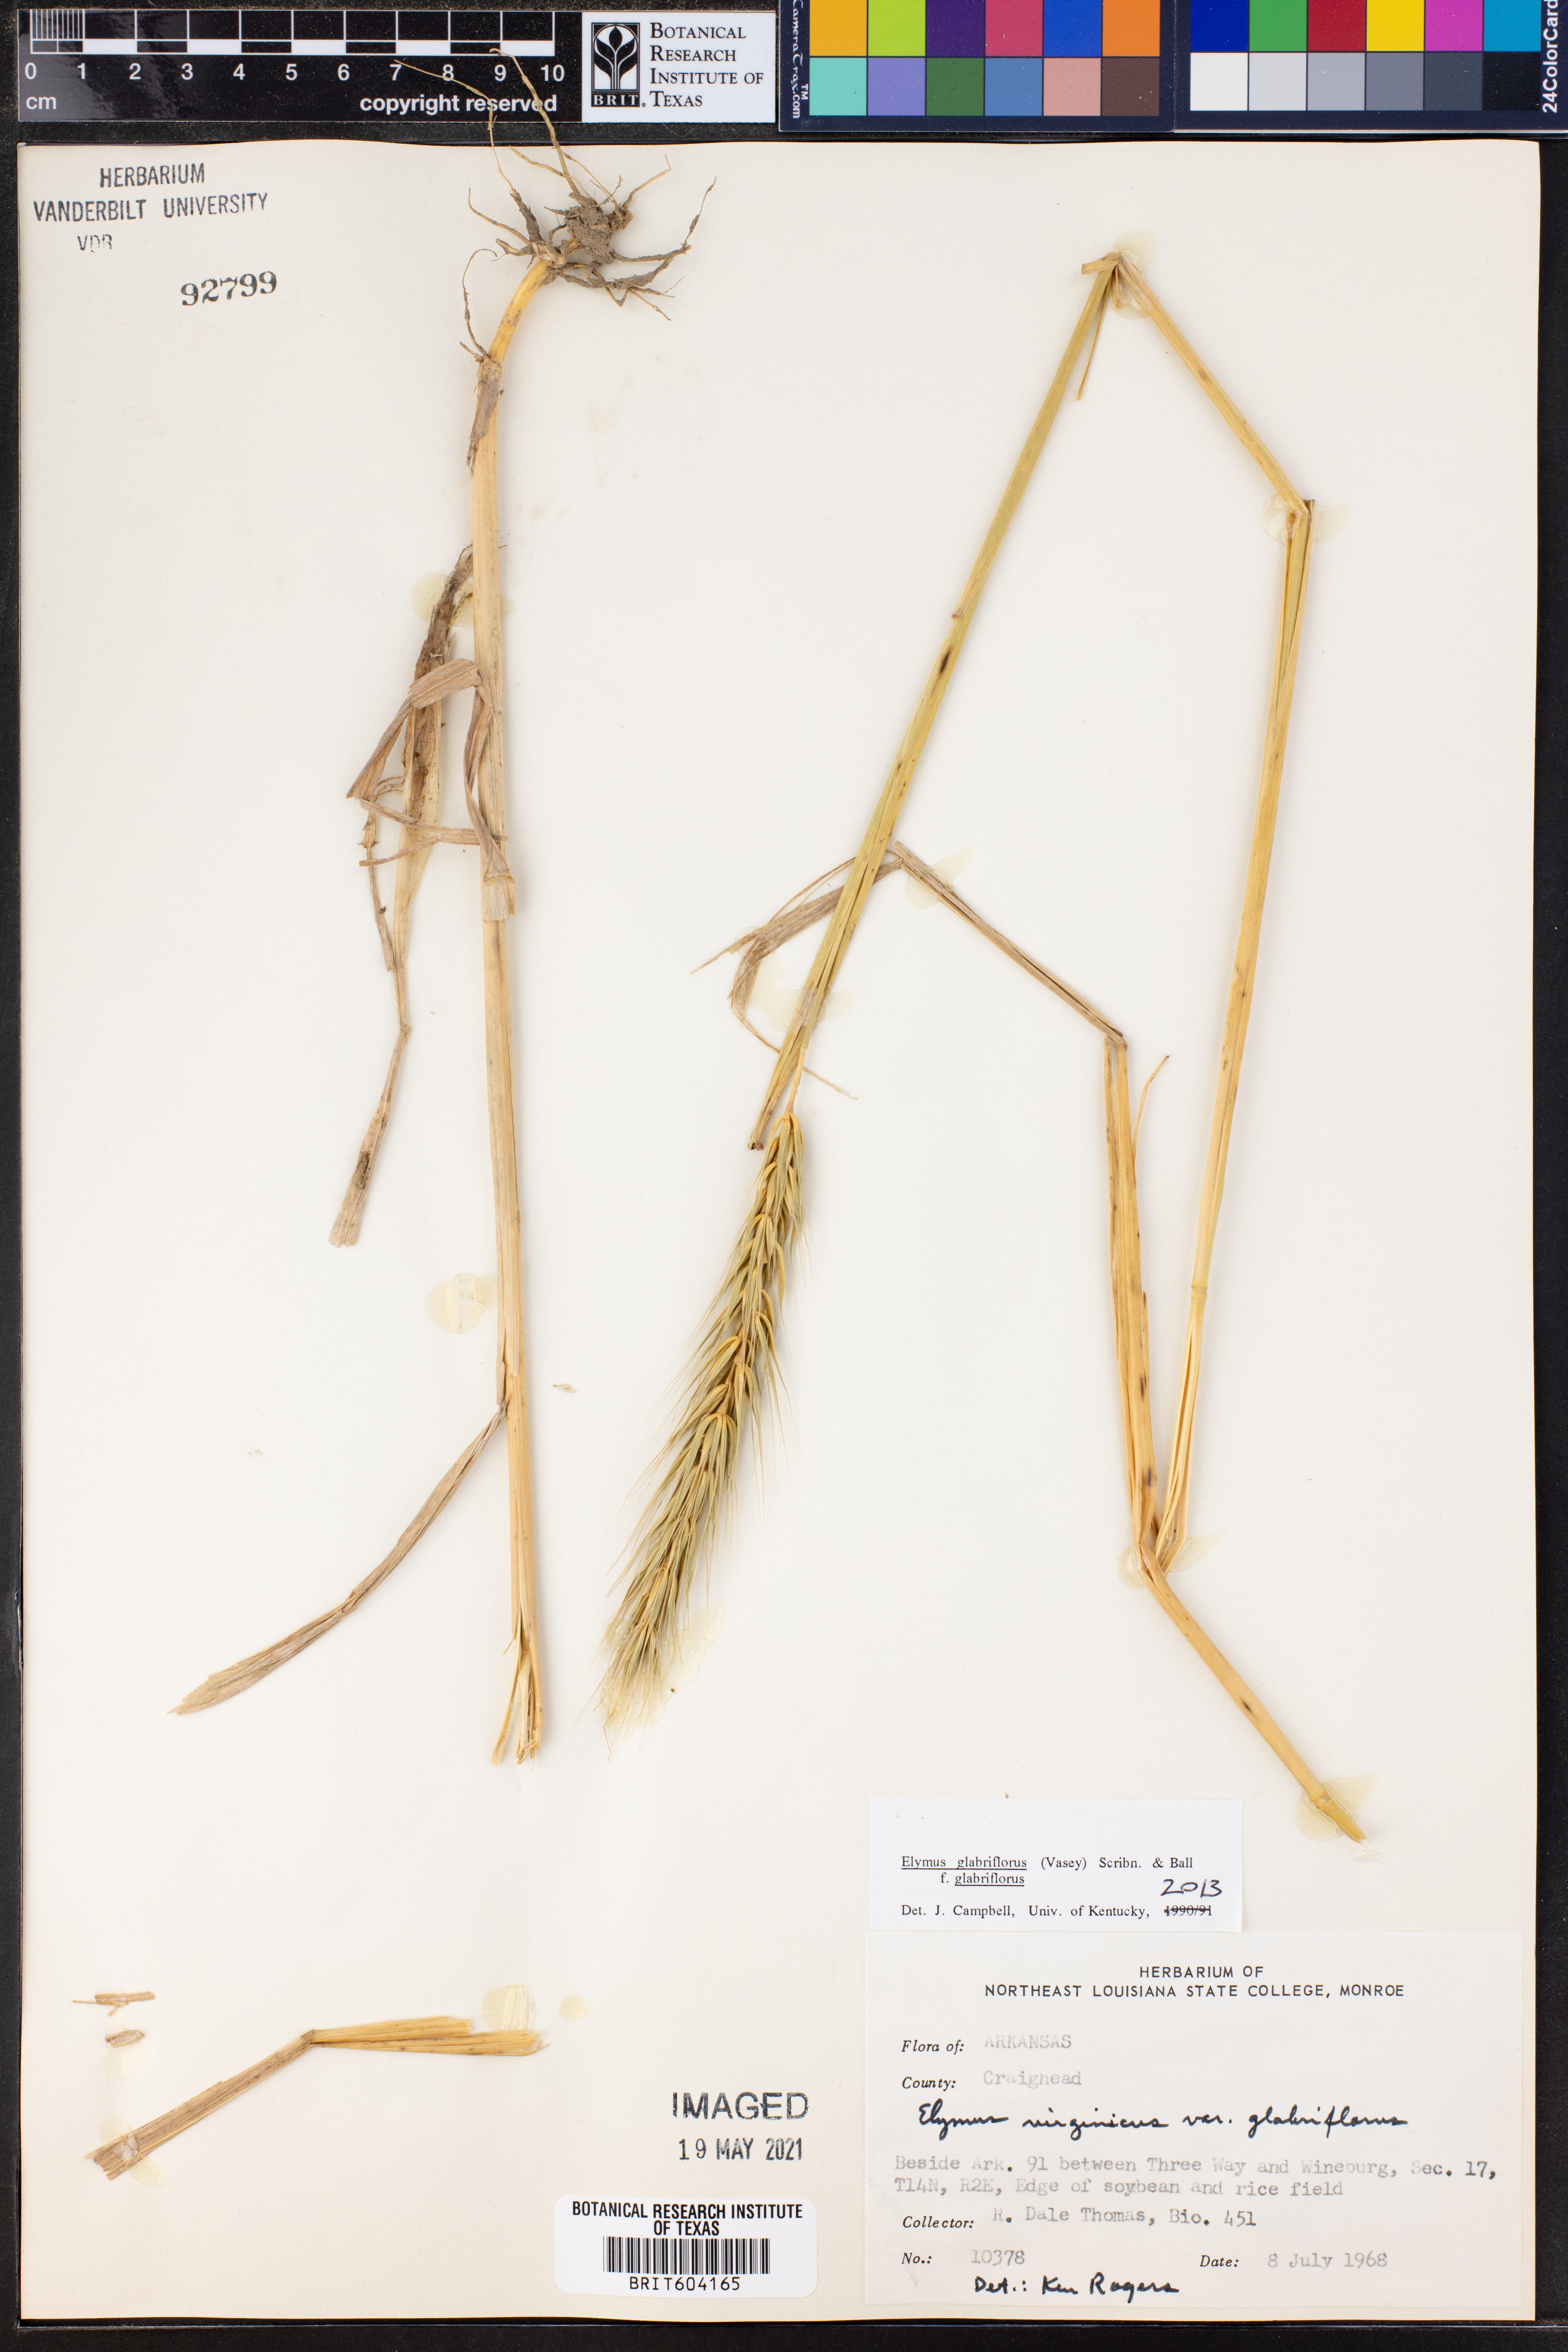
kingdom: Plantae
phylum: Tracheophyta
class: Liliopsida
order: Poales
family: Poaceae
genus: Elymus
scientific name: Elymus virginicus
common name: Common eastern wildrye
